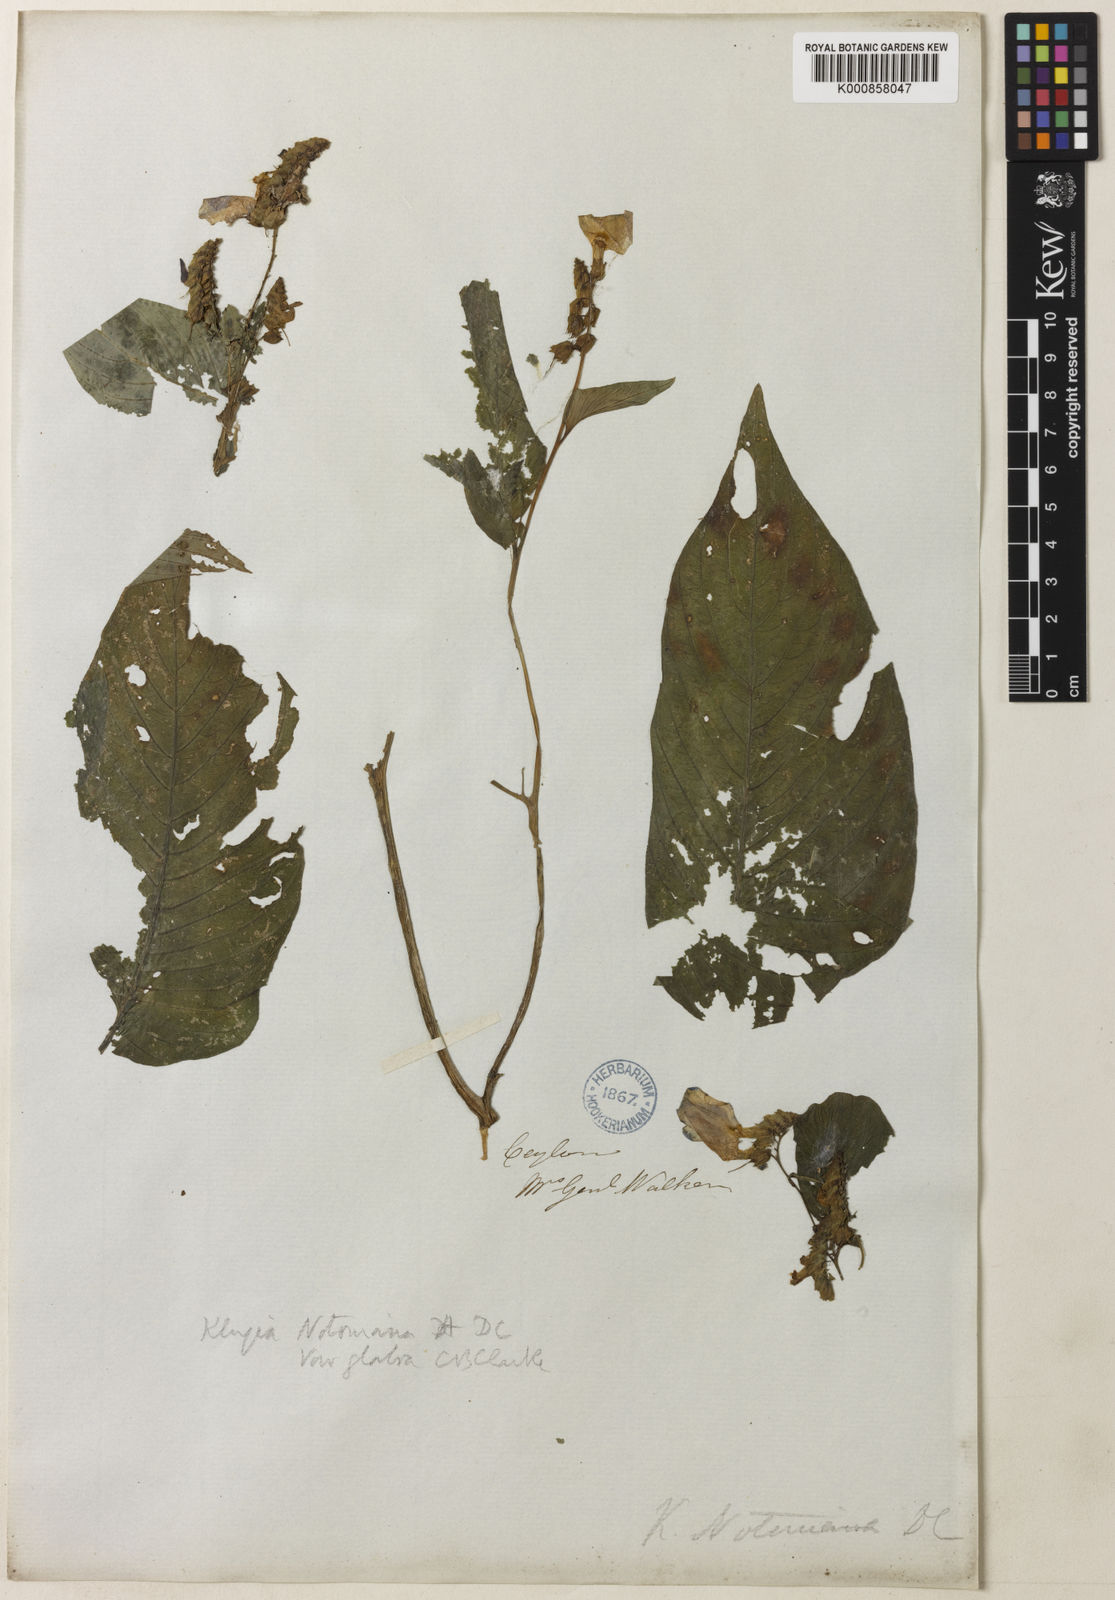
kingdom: Plantae
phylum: Tracheophyta
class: Magnoliopsida
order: Lamiales
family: Gesneriaceae
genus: Rhynchoglossum
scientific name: Rhynchoglossum notonianum
